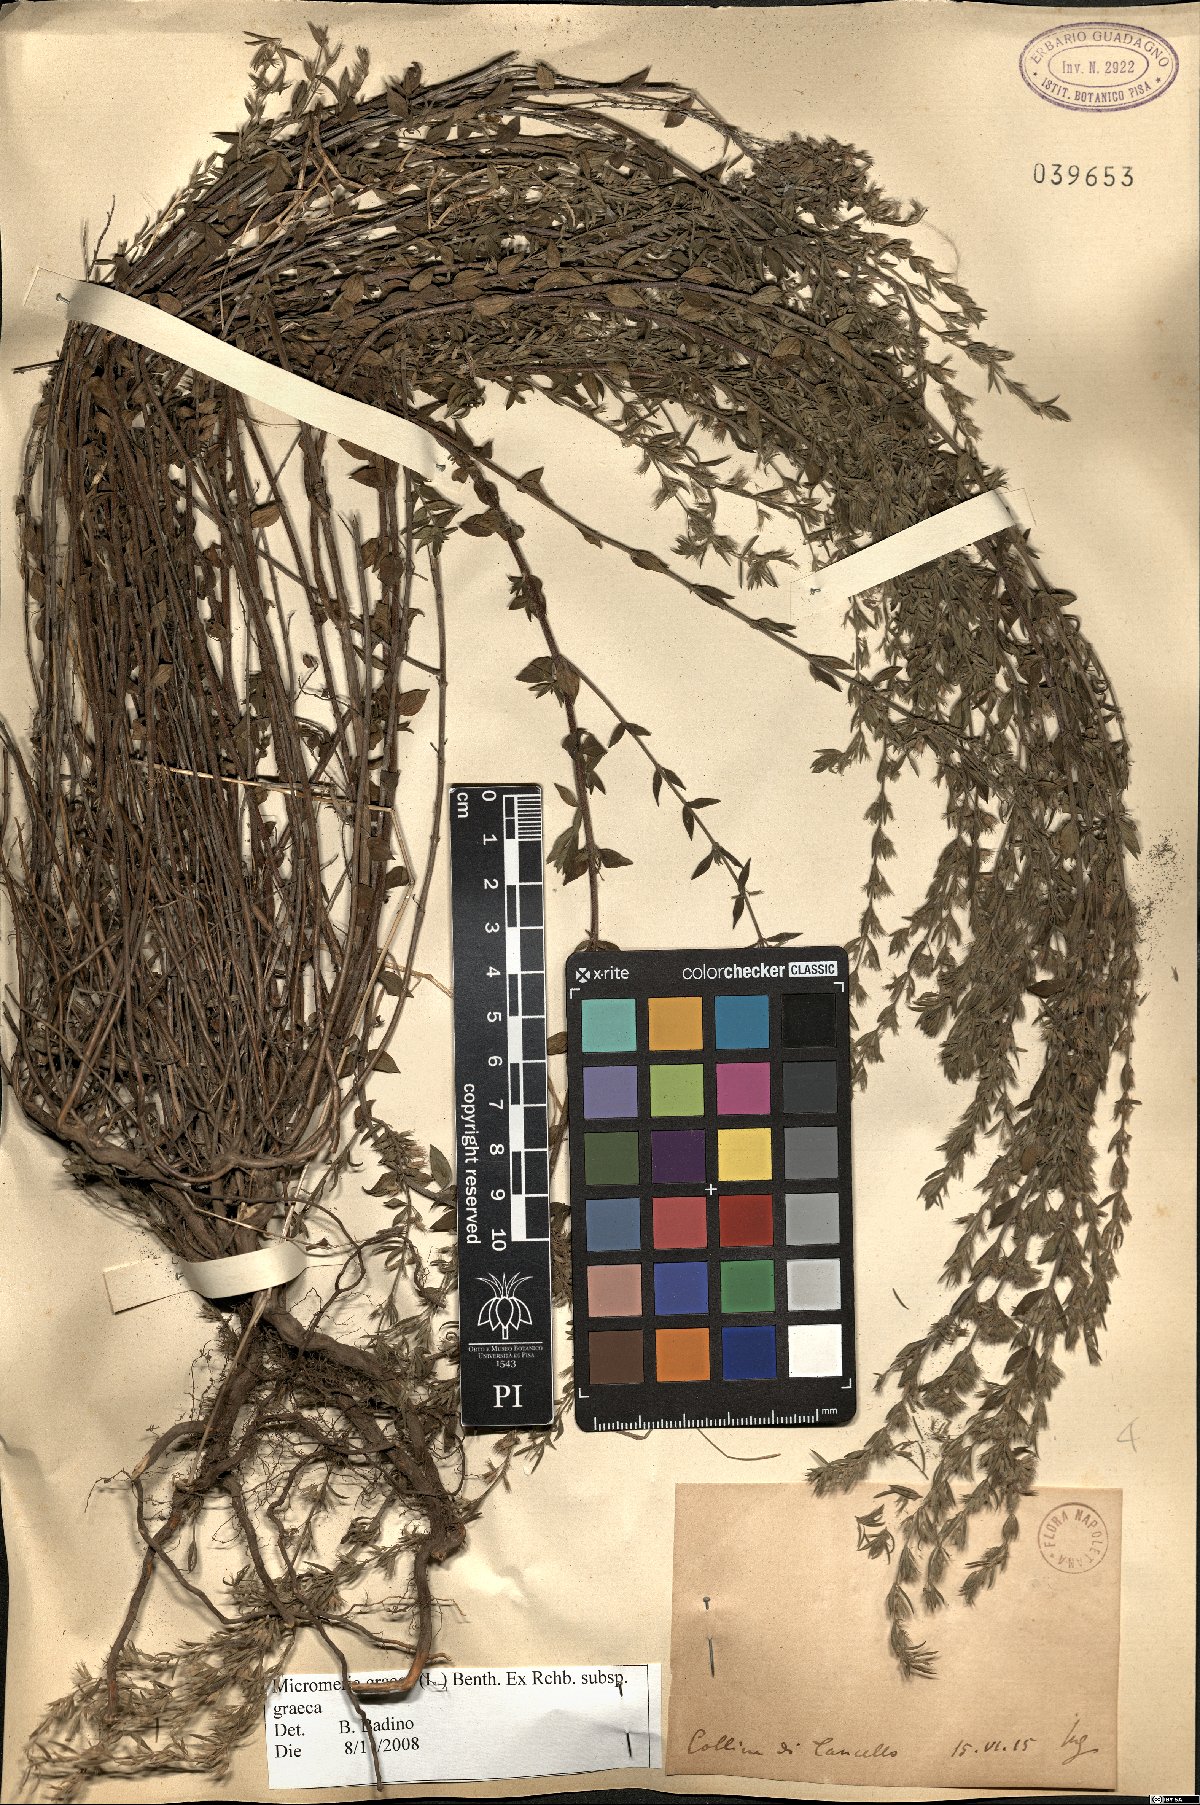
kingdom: Plantae
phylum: Tracheophyta
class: Magnoliopsida
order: Lamiales
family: Lamiaceae
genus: Micromeria
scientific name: Micromeria graeca
